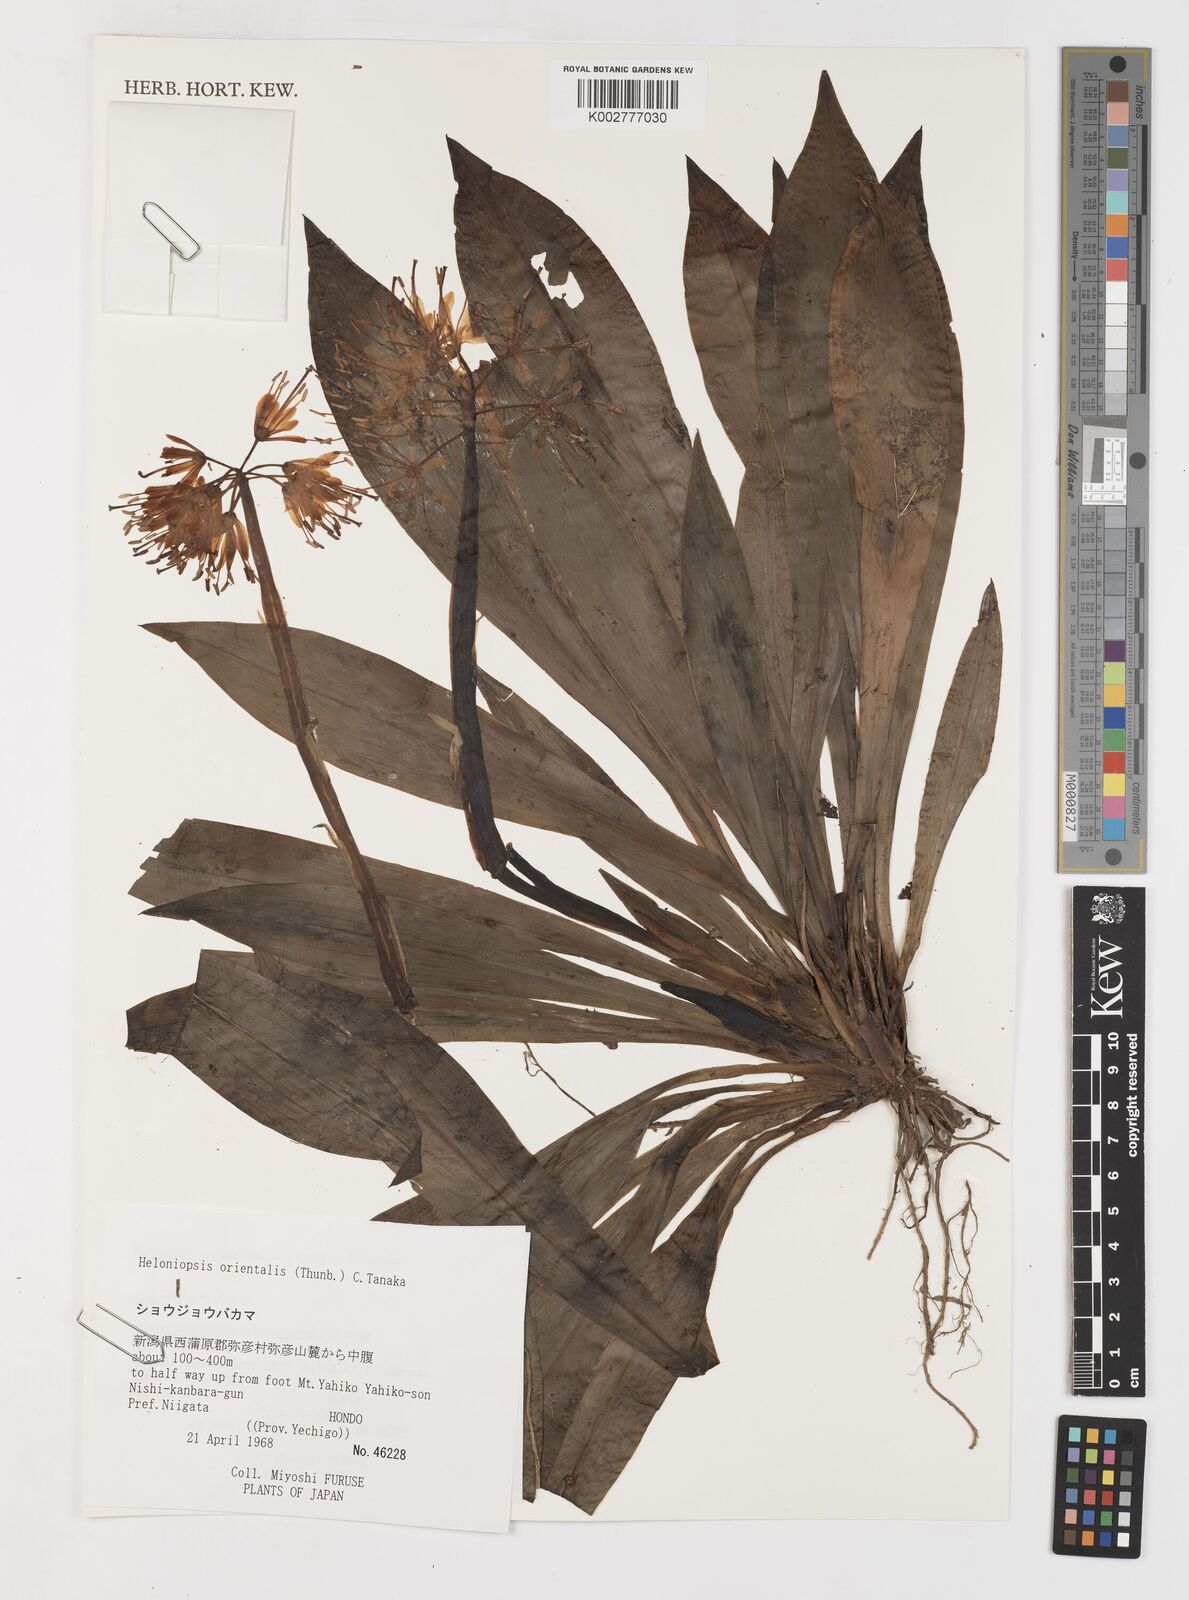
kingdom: Plantae
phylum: Tracheophyta
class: Liliopsida
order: Liliales
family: Melanthiaceae
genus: Helonias
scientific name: Helonias orientalis
